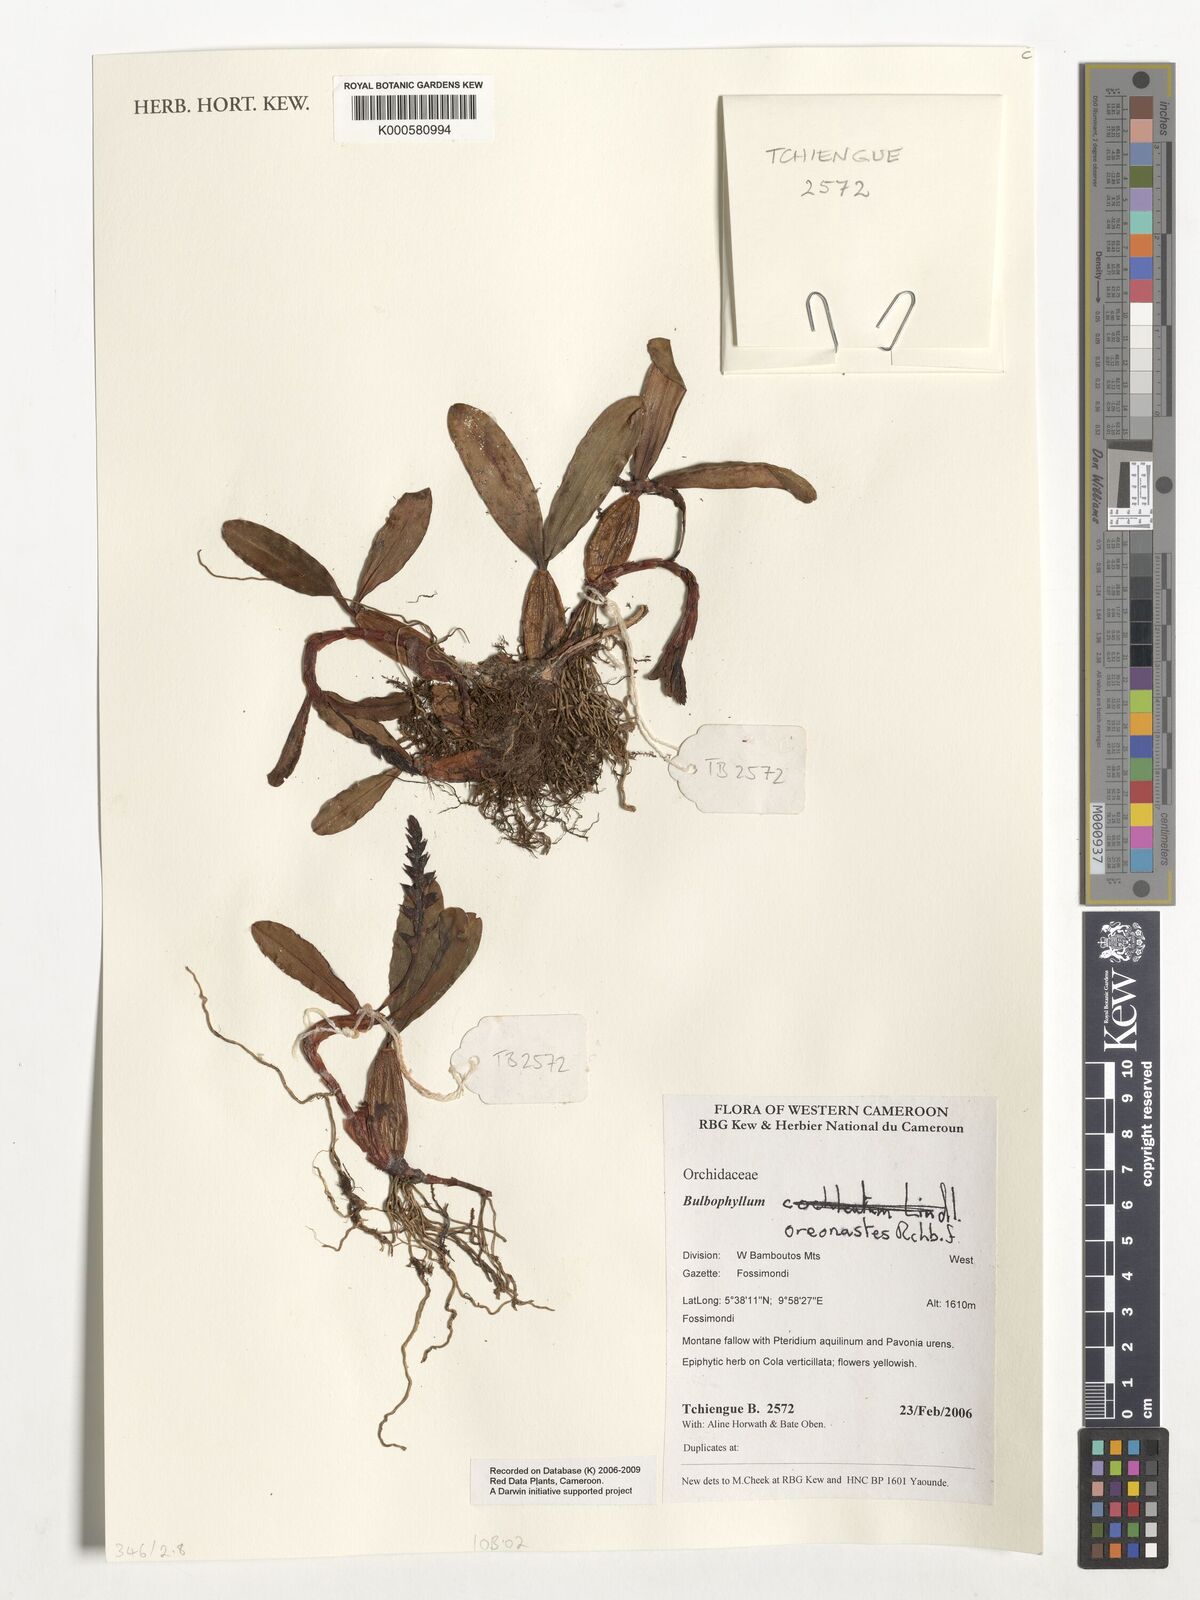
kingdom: Plantae
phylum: Tracheophyta
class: Liliopsida
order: Asparagales
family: Orchidaceae
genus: Bulbophyllum
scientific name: Bulbophyllum oreonastes
